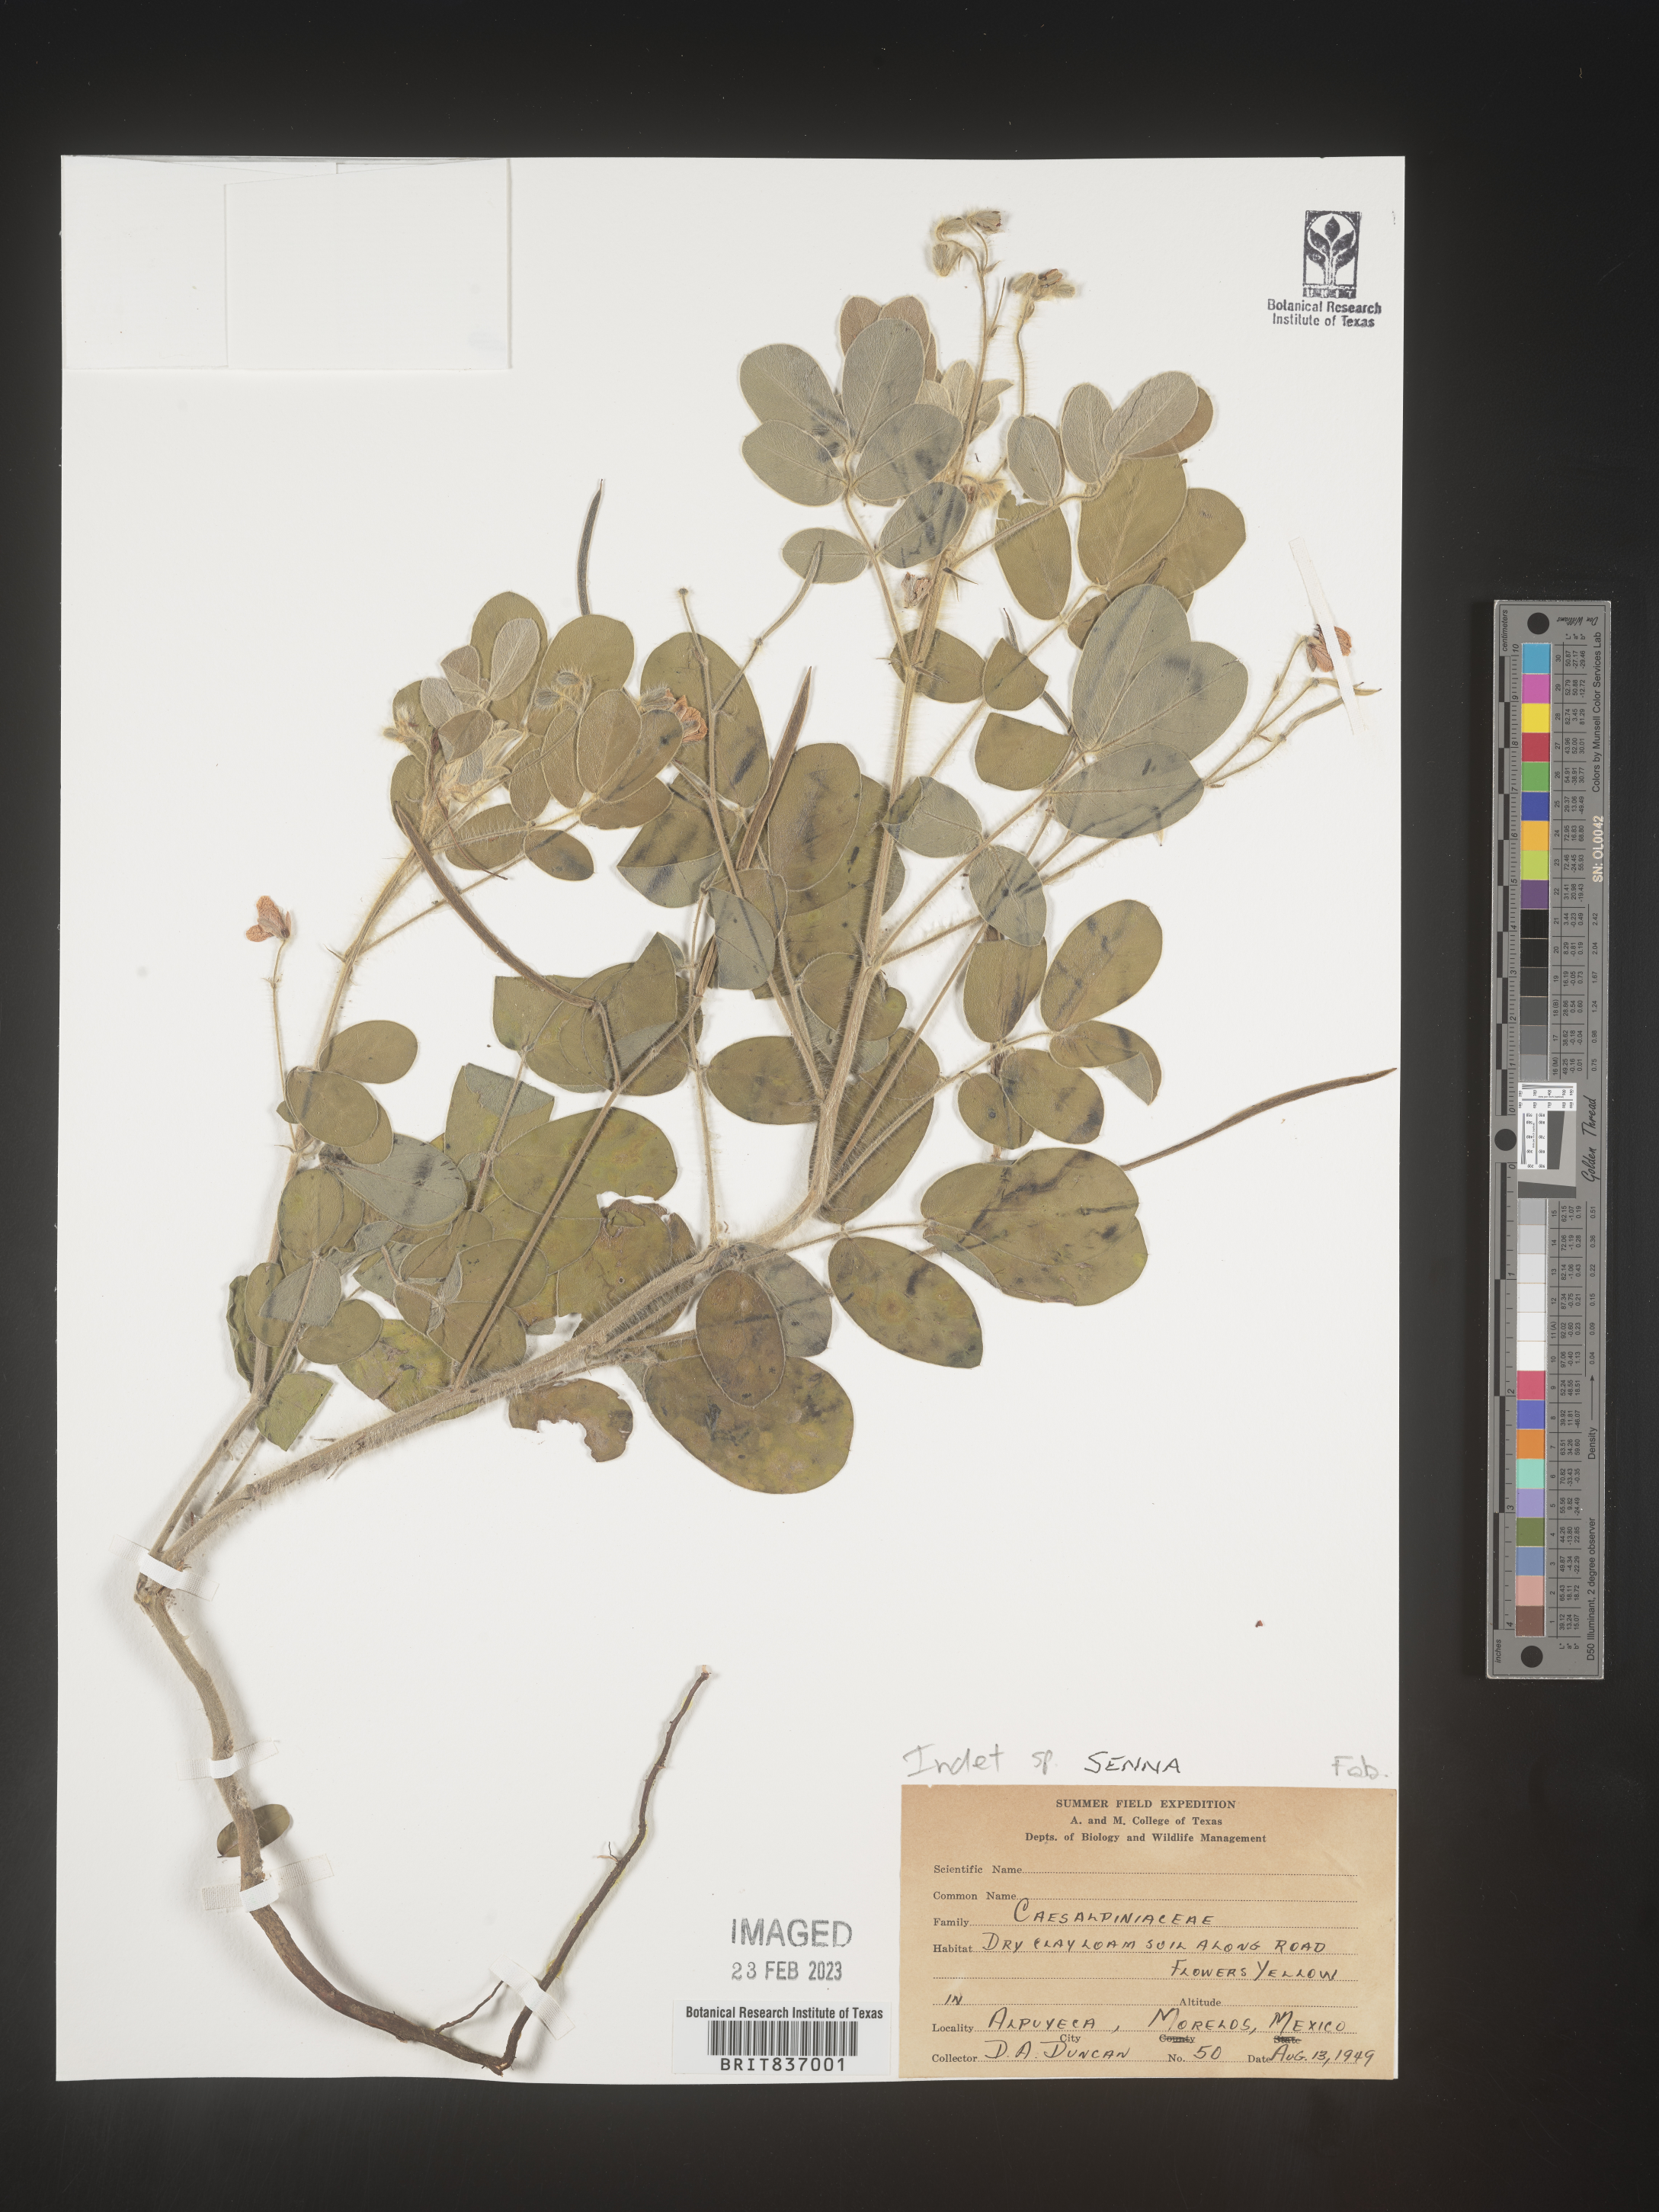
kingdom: Plantae
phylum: Tracheophyta
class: Magnoliopsida
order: Fabales
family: Fabaceae
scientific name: Fabaceae
